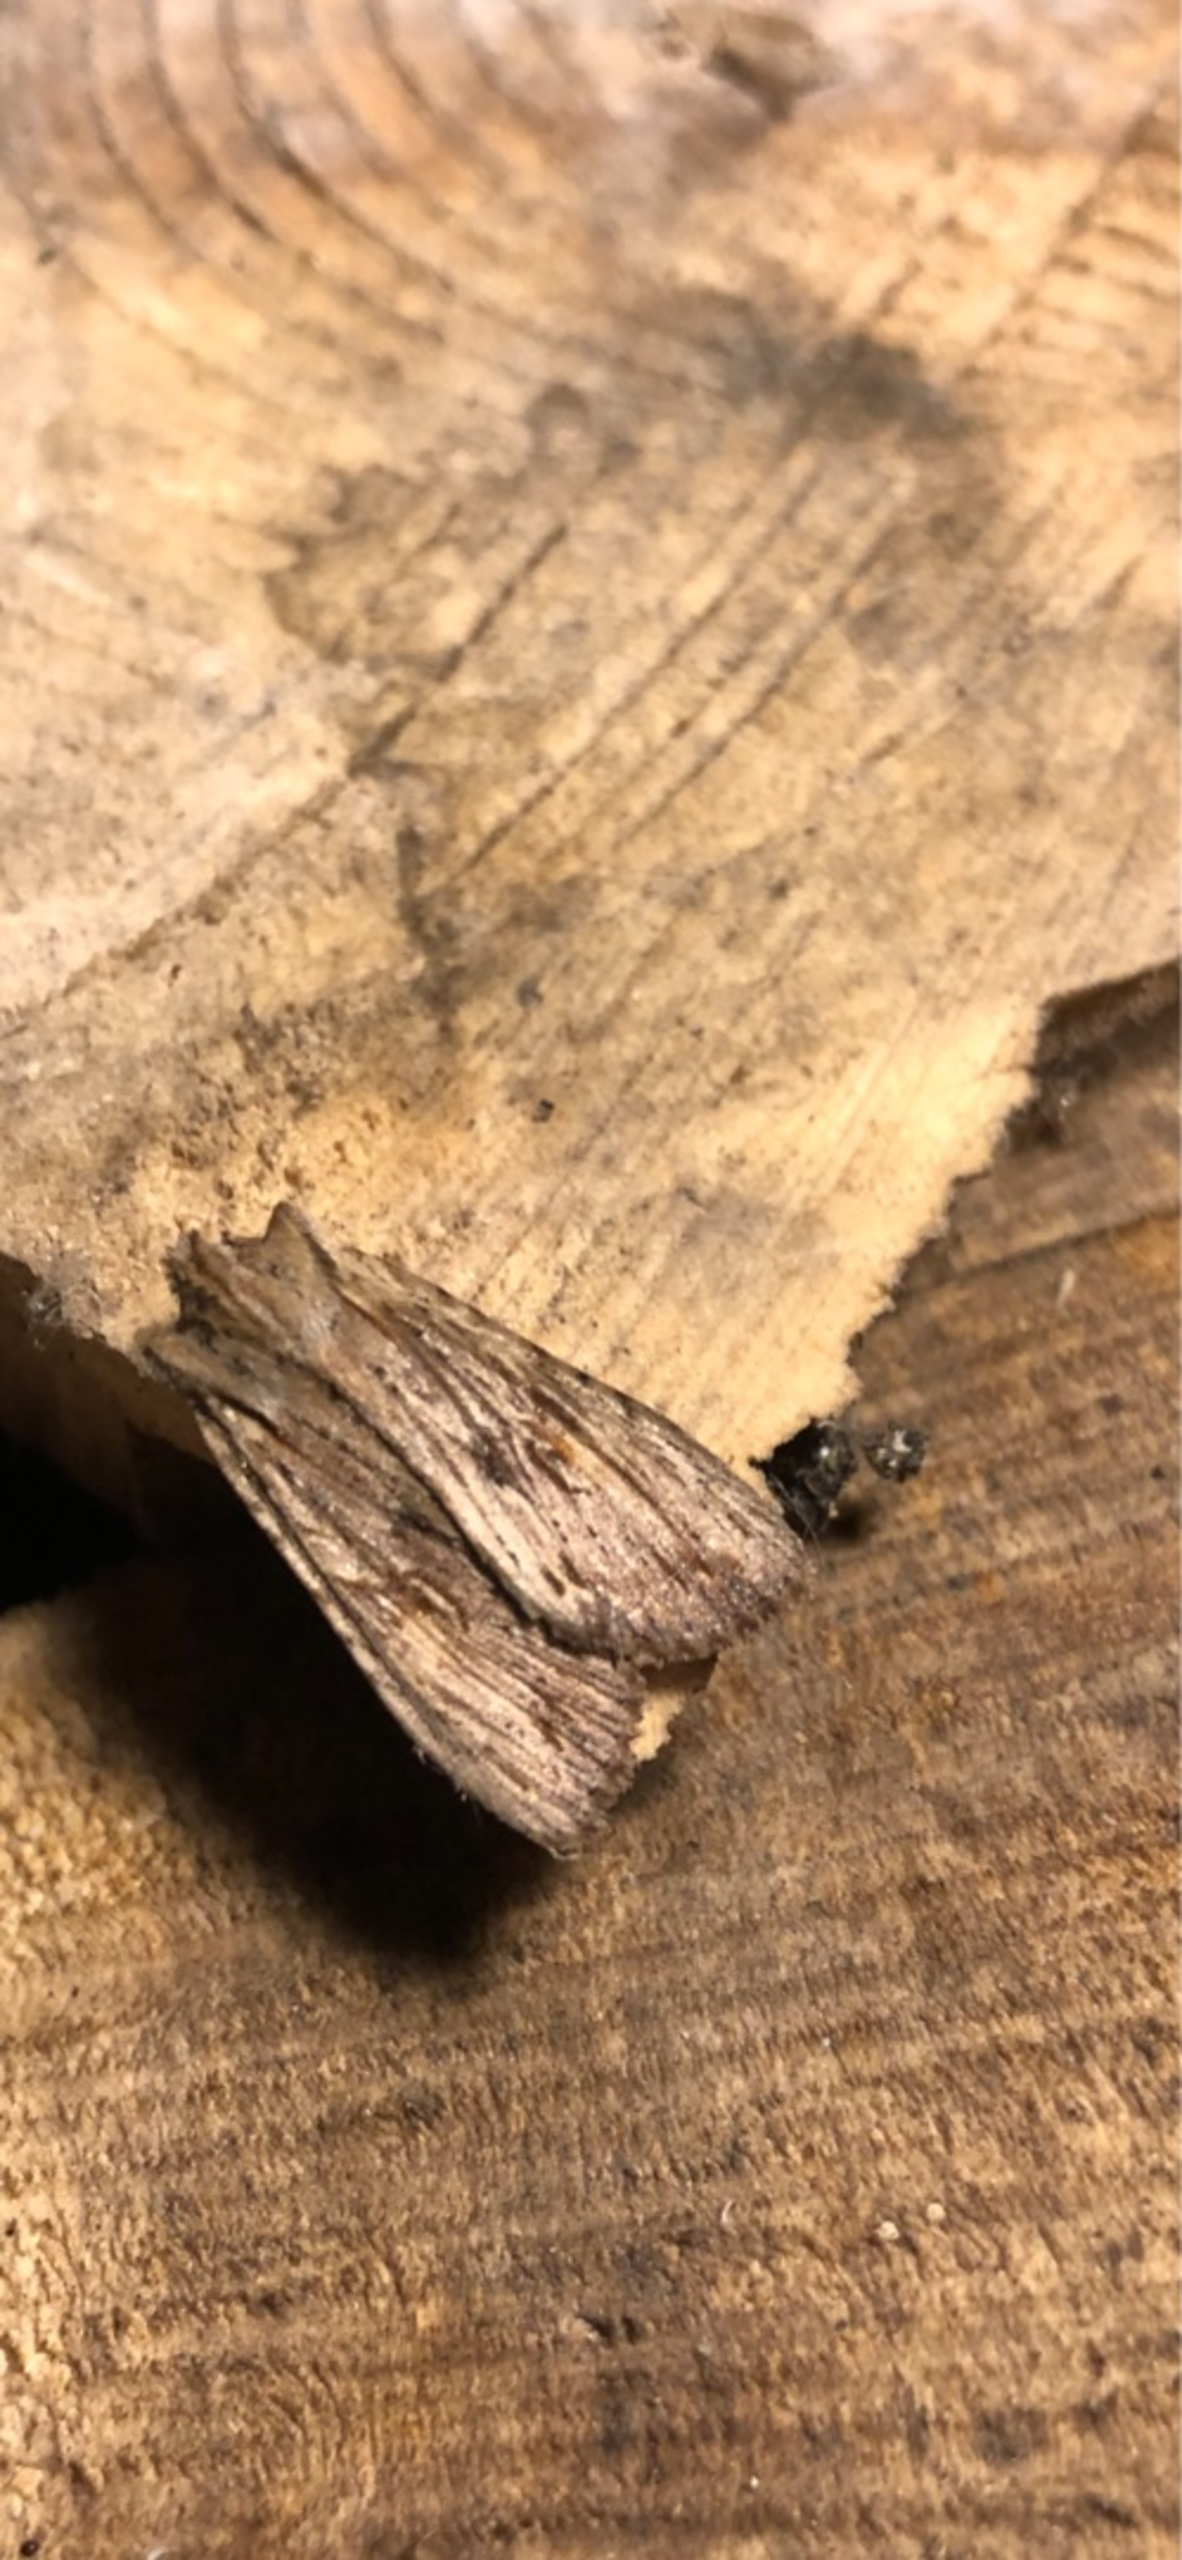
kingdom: Animalia
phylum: Arthropoda
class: Insecta
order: Lepidoptera
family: Noctuidae
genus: Lithophane
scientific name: Lithophane socia
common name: Alliance-stenugle
